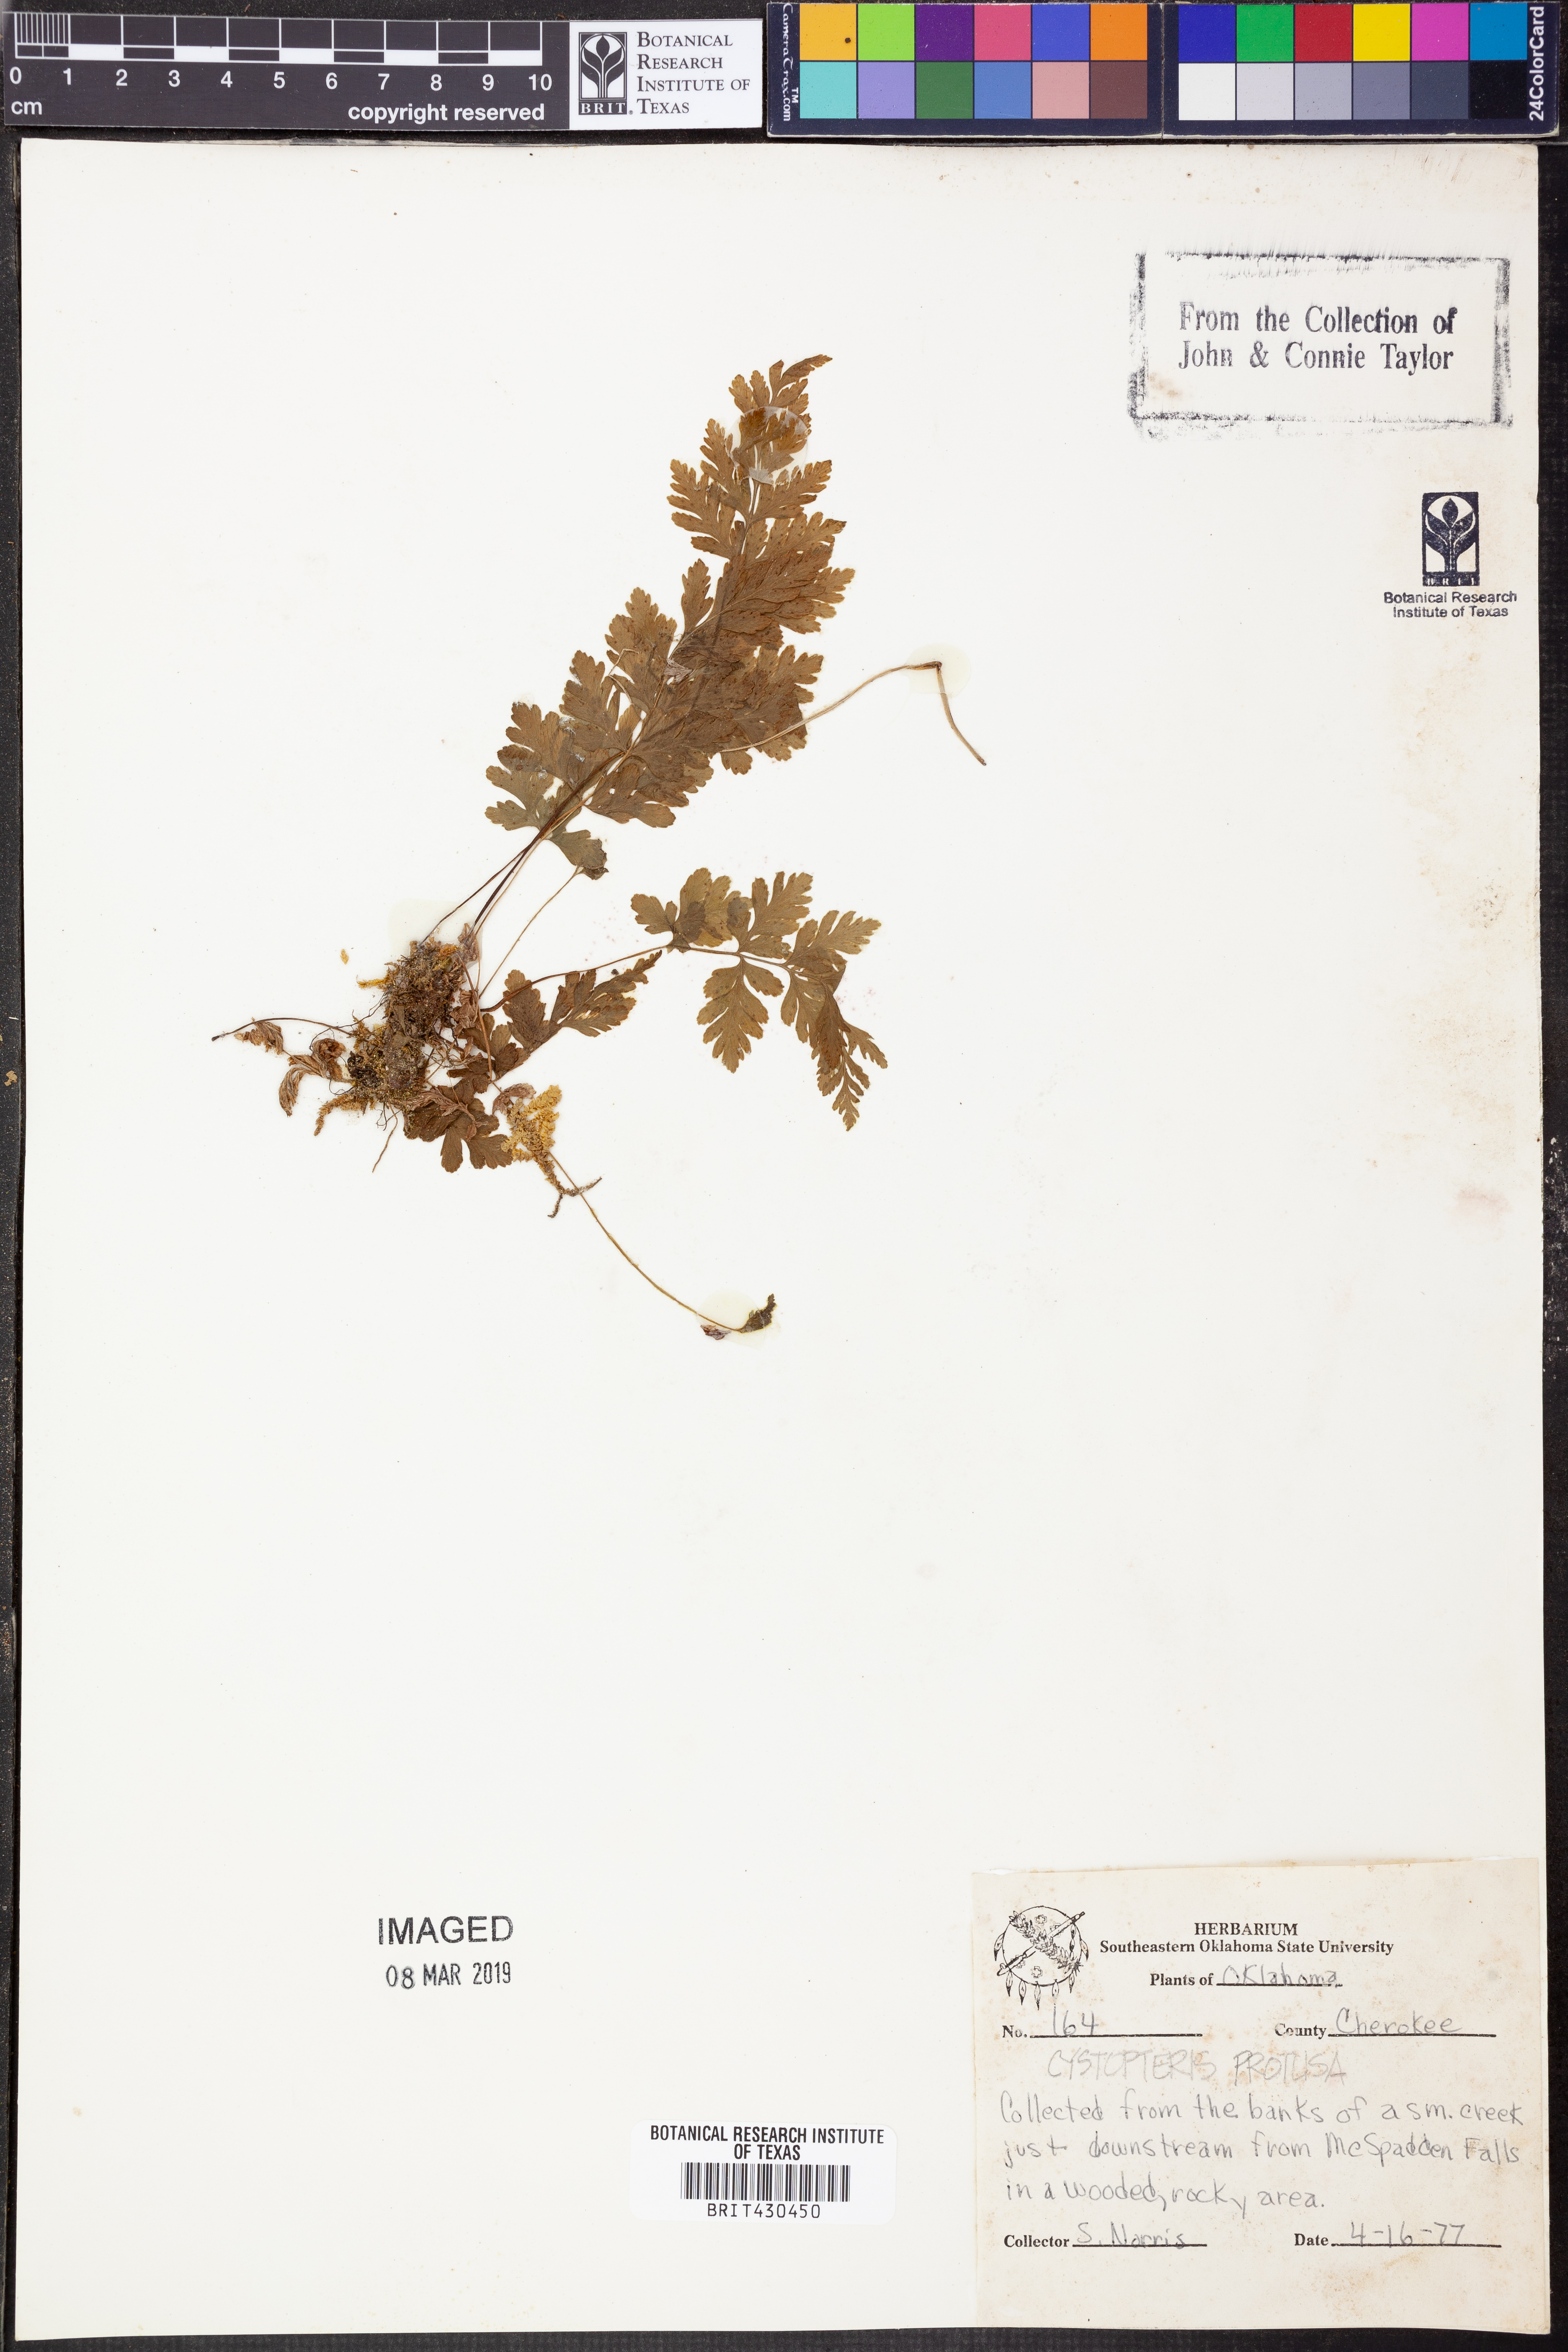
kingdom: Plantae
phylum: Tracheophyta
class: Polypodiopsida
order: Polypodiales
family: Cystopteridaceae
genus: Cystopteris
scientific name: Cystopteris protrusa
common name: Lowland brittle fern
